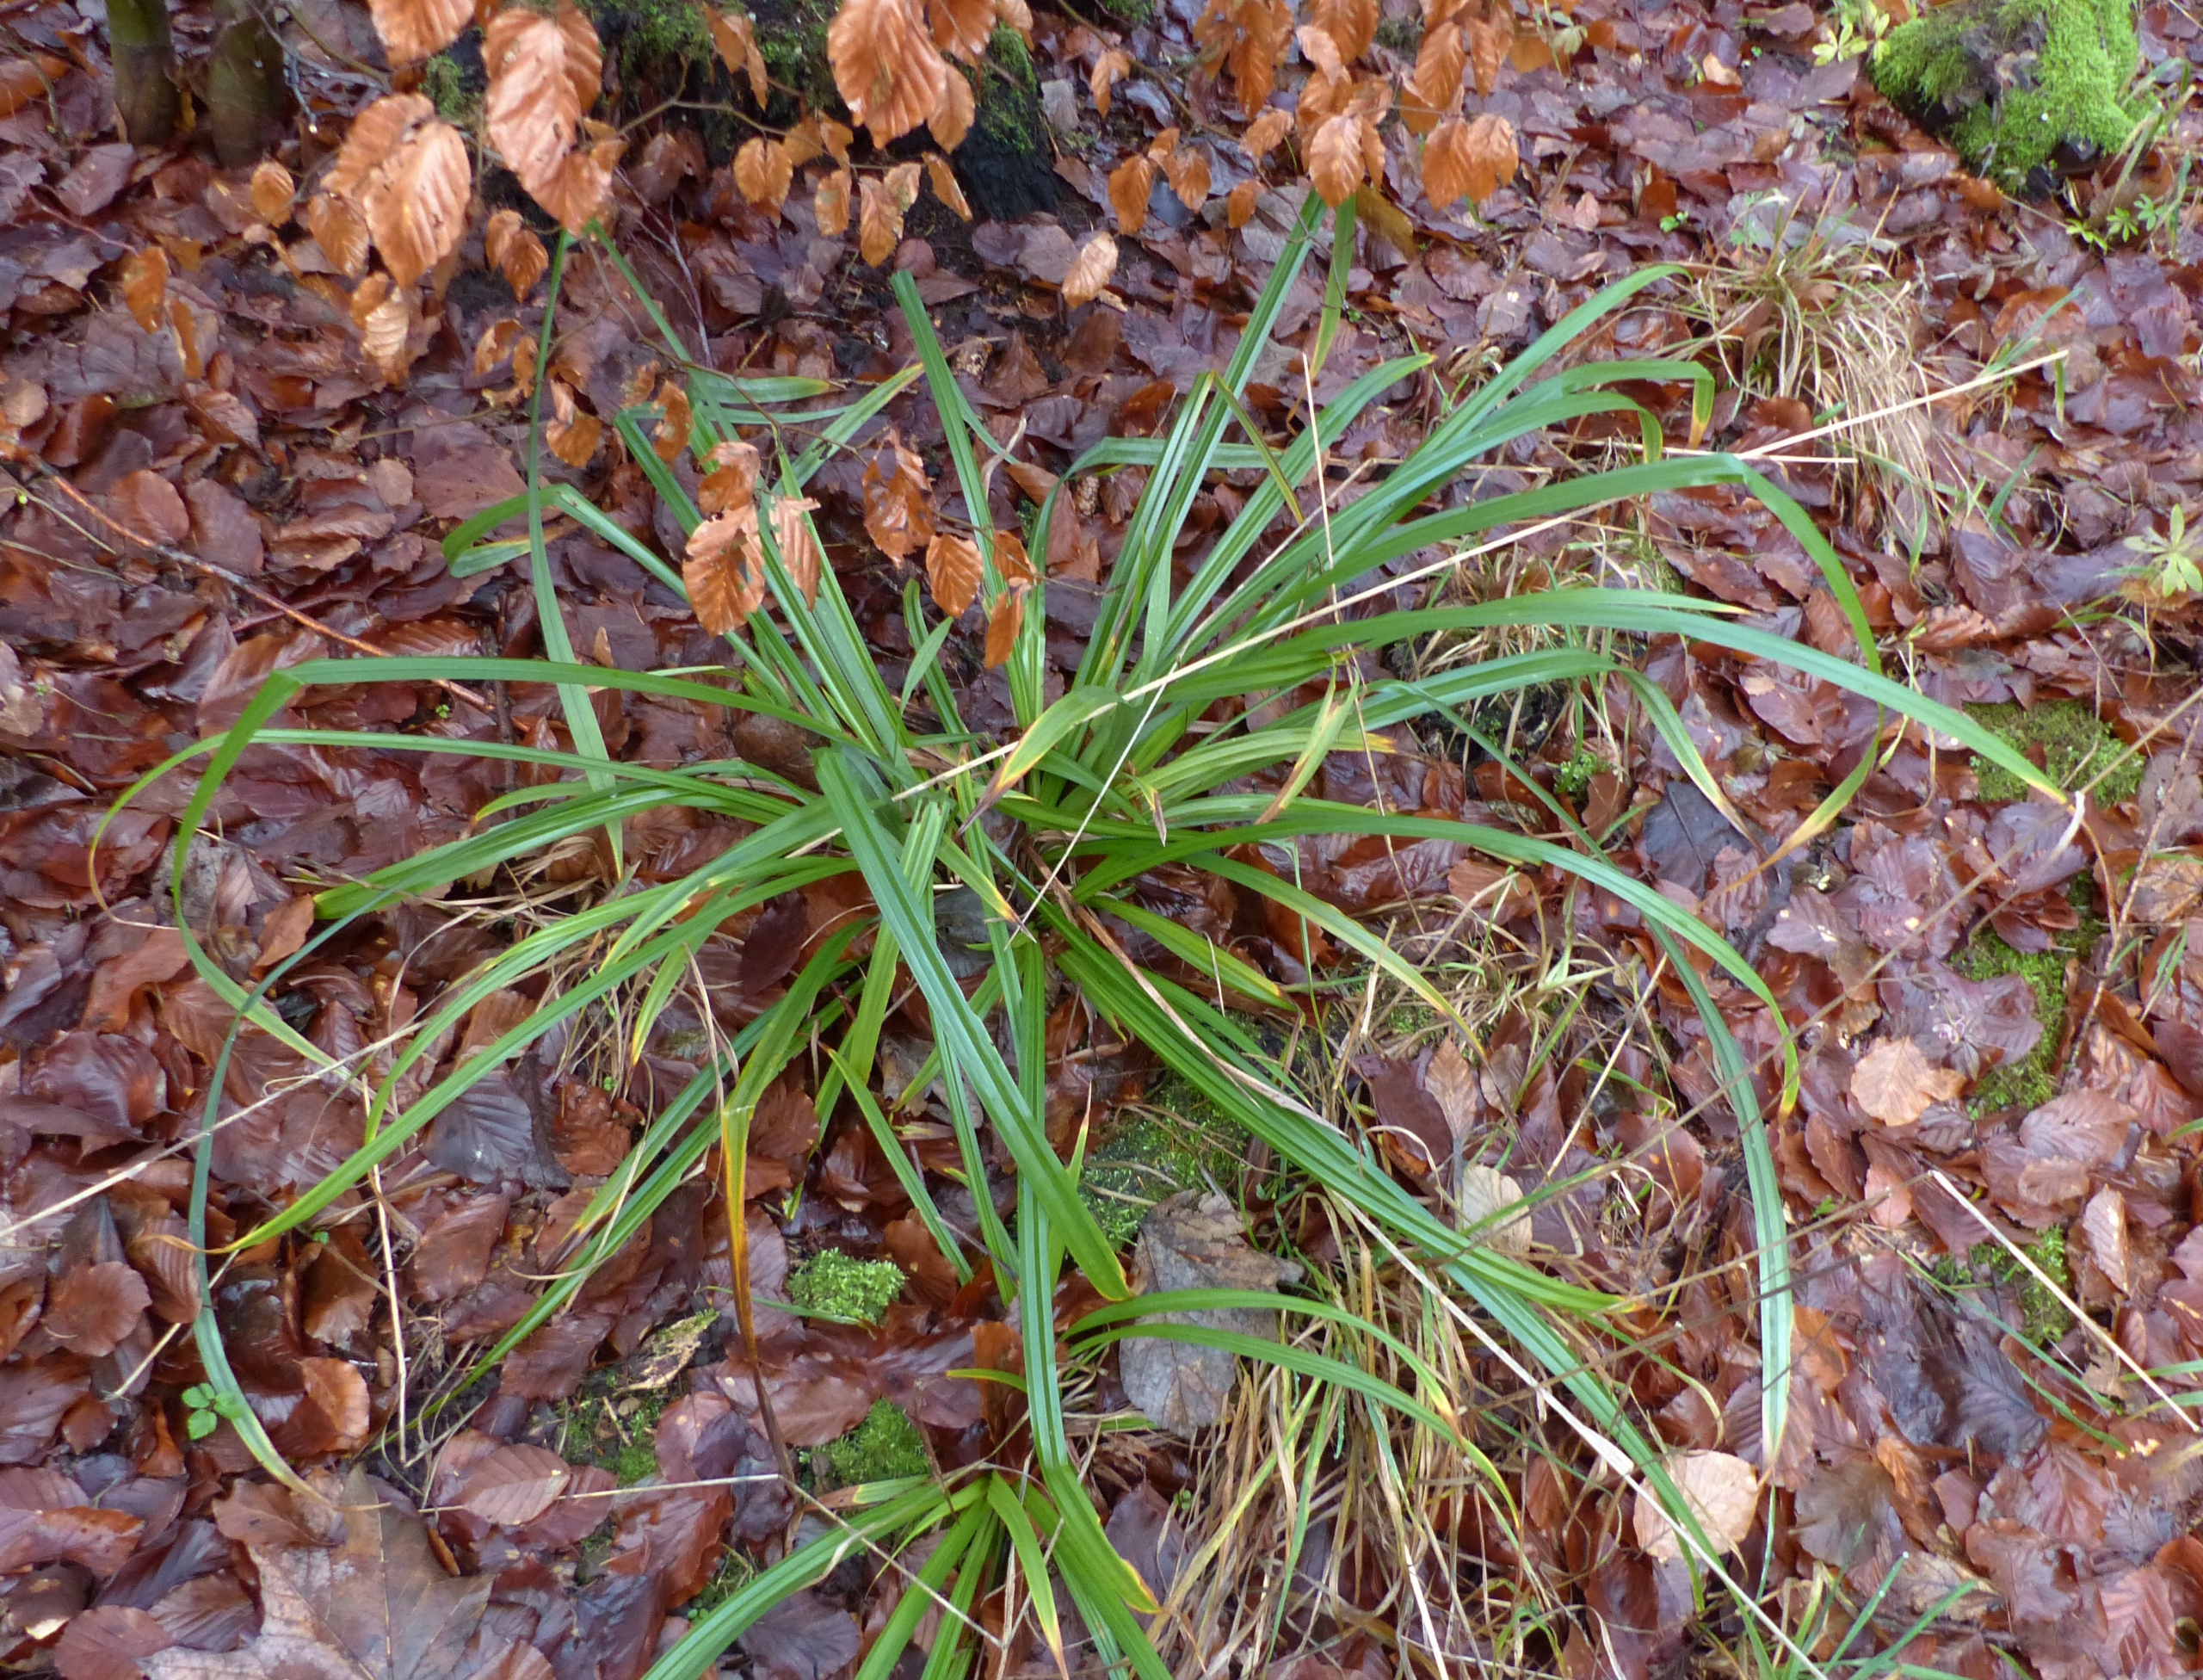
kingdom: Plantae
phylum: Tracheophyta
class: Liliopsida
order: Poales
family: Cyperaceae
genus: Carex
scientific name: Carex pendula
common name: Kæmpe-star
